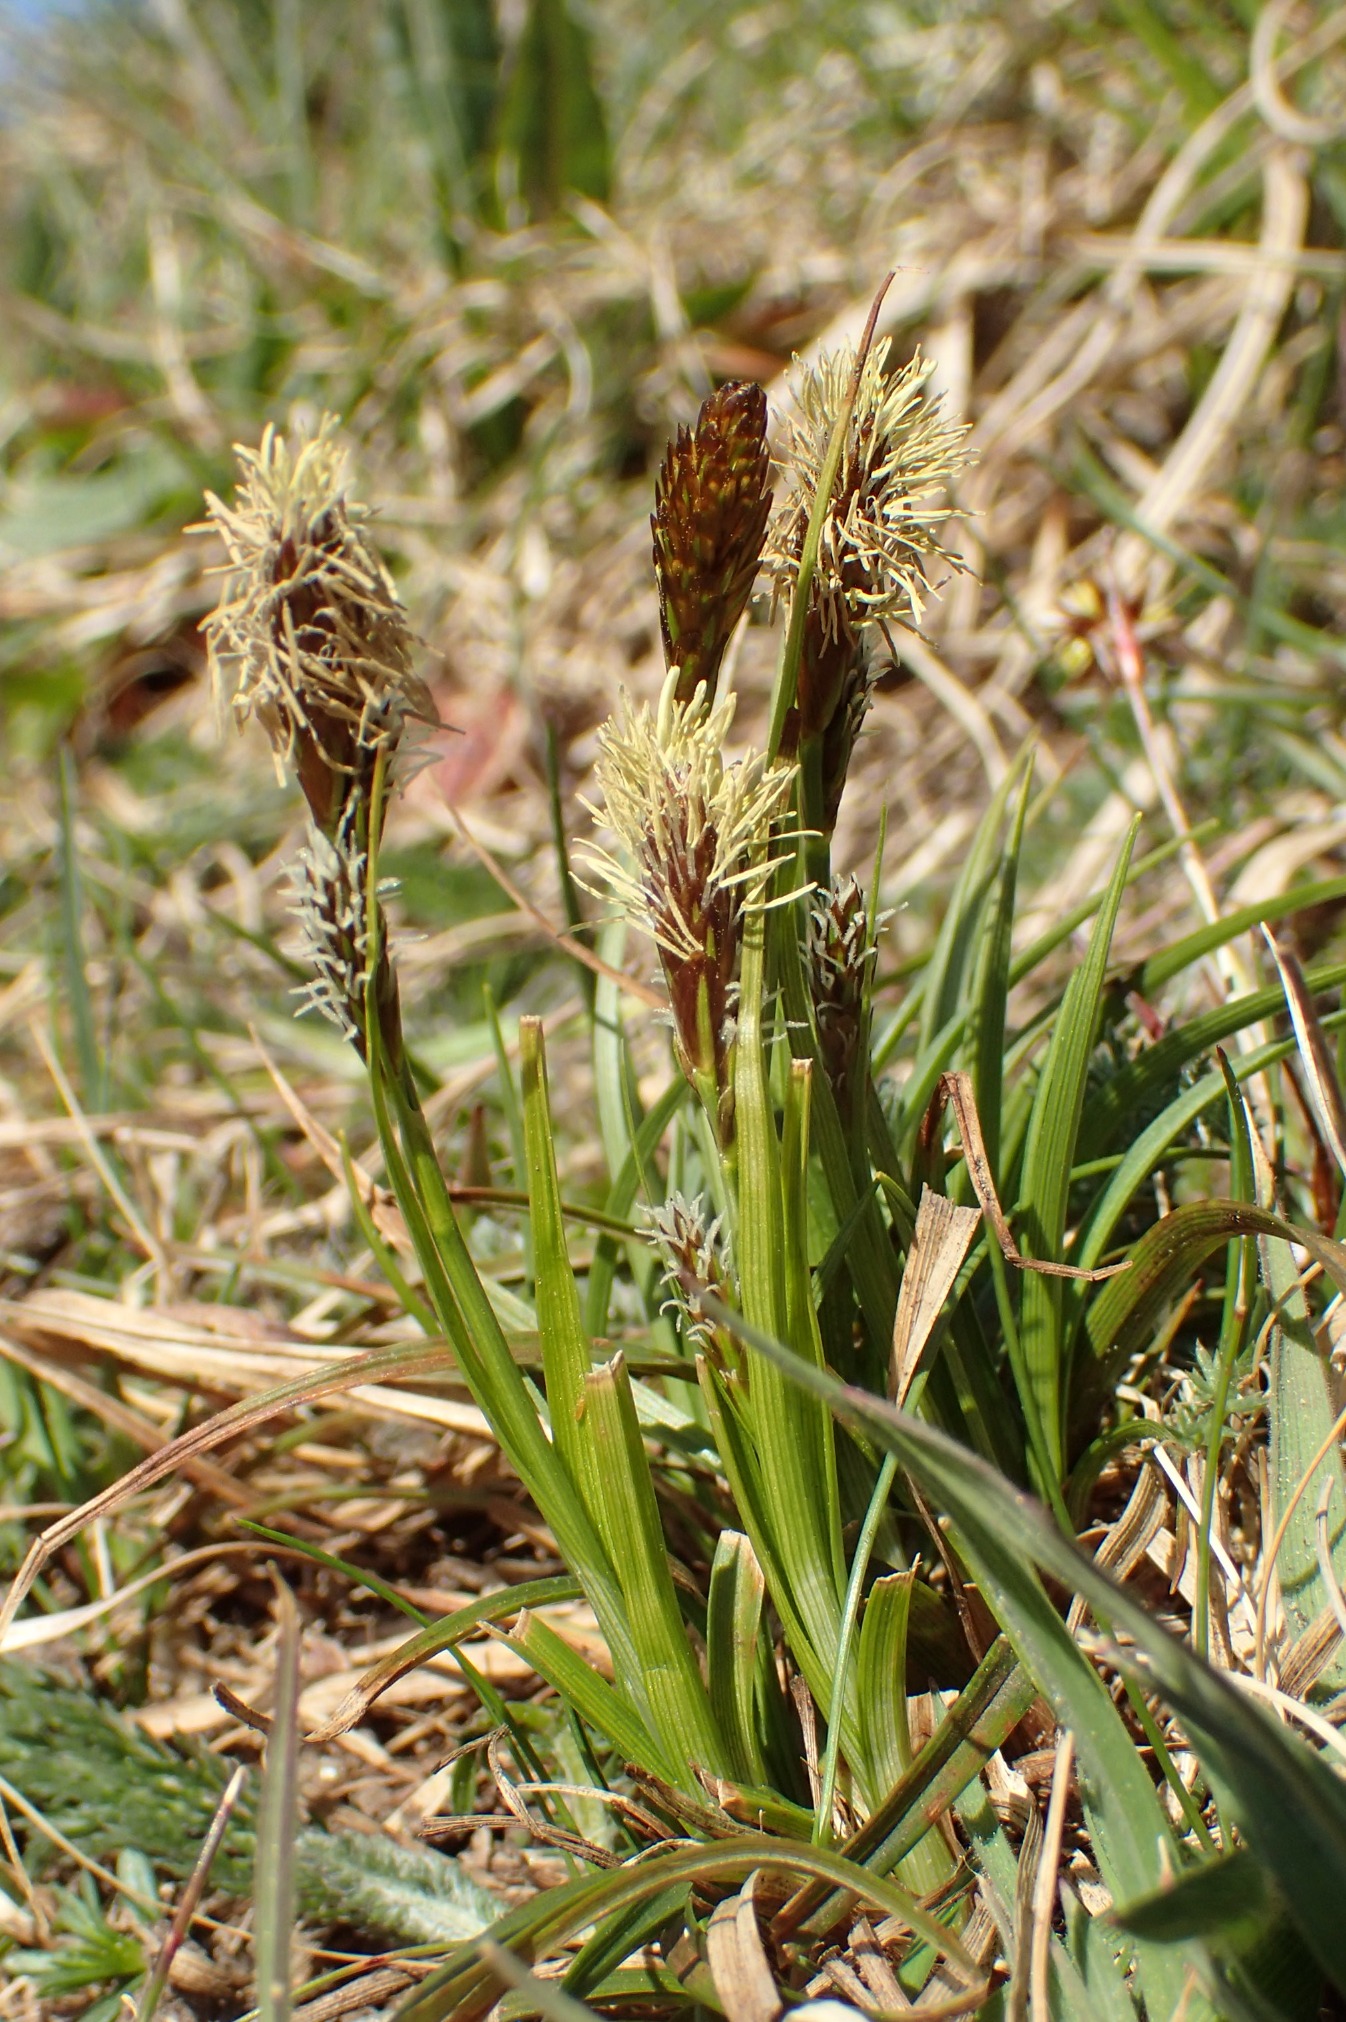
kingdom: Plantae
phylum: Tracheophyta
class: Liliopsida
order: Poales
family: Cyperaceae
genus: Carex
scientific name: Carex caryophyllea
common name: Vår-star
